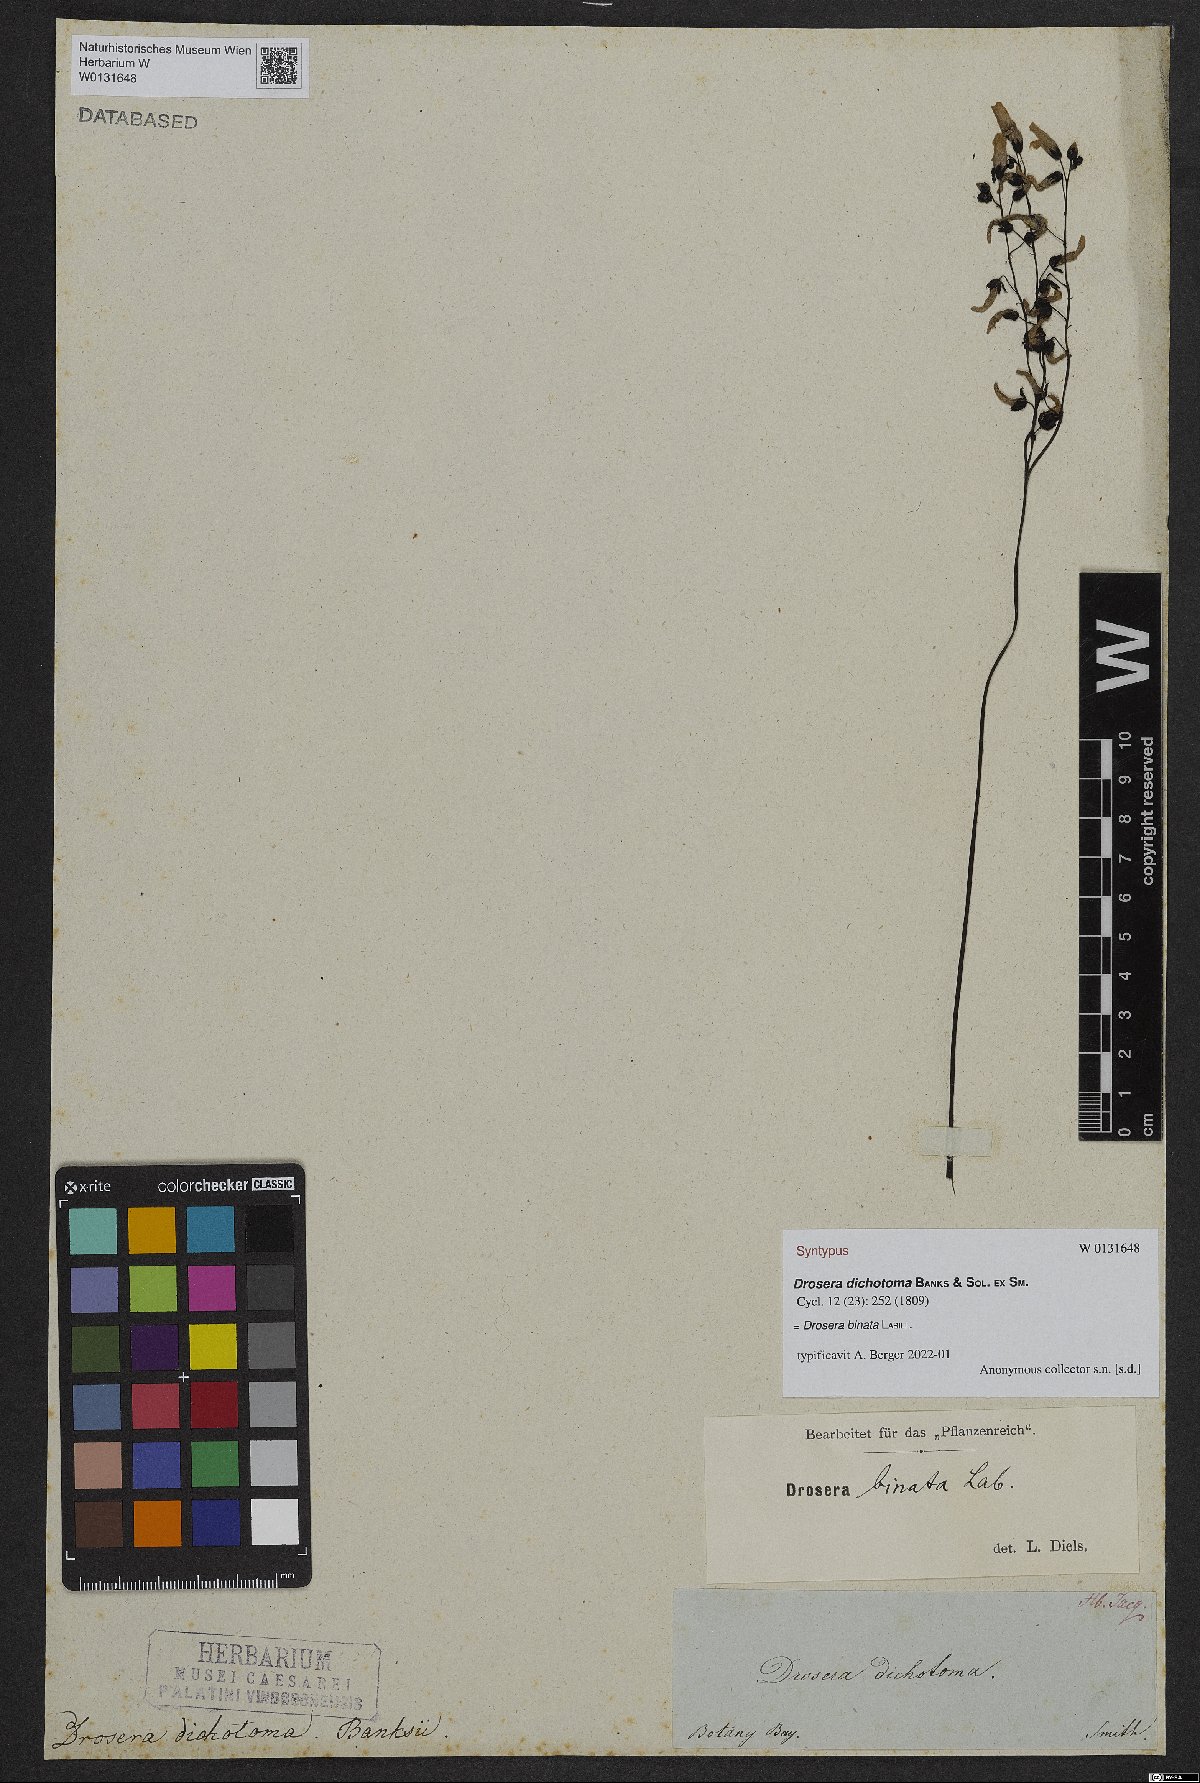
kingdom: Plantae
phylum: Tracheophyta
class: Magnoliopsida
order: Caryophyllales
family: Droseraceae
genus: Drosera
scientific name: Drosera binata
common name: Forked sundew
